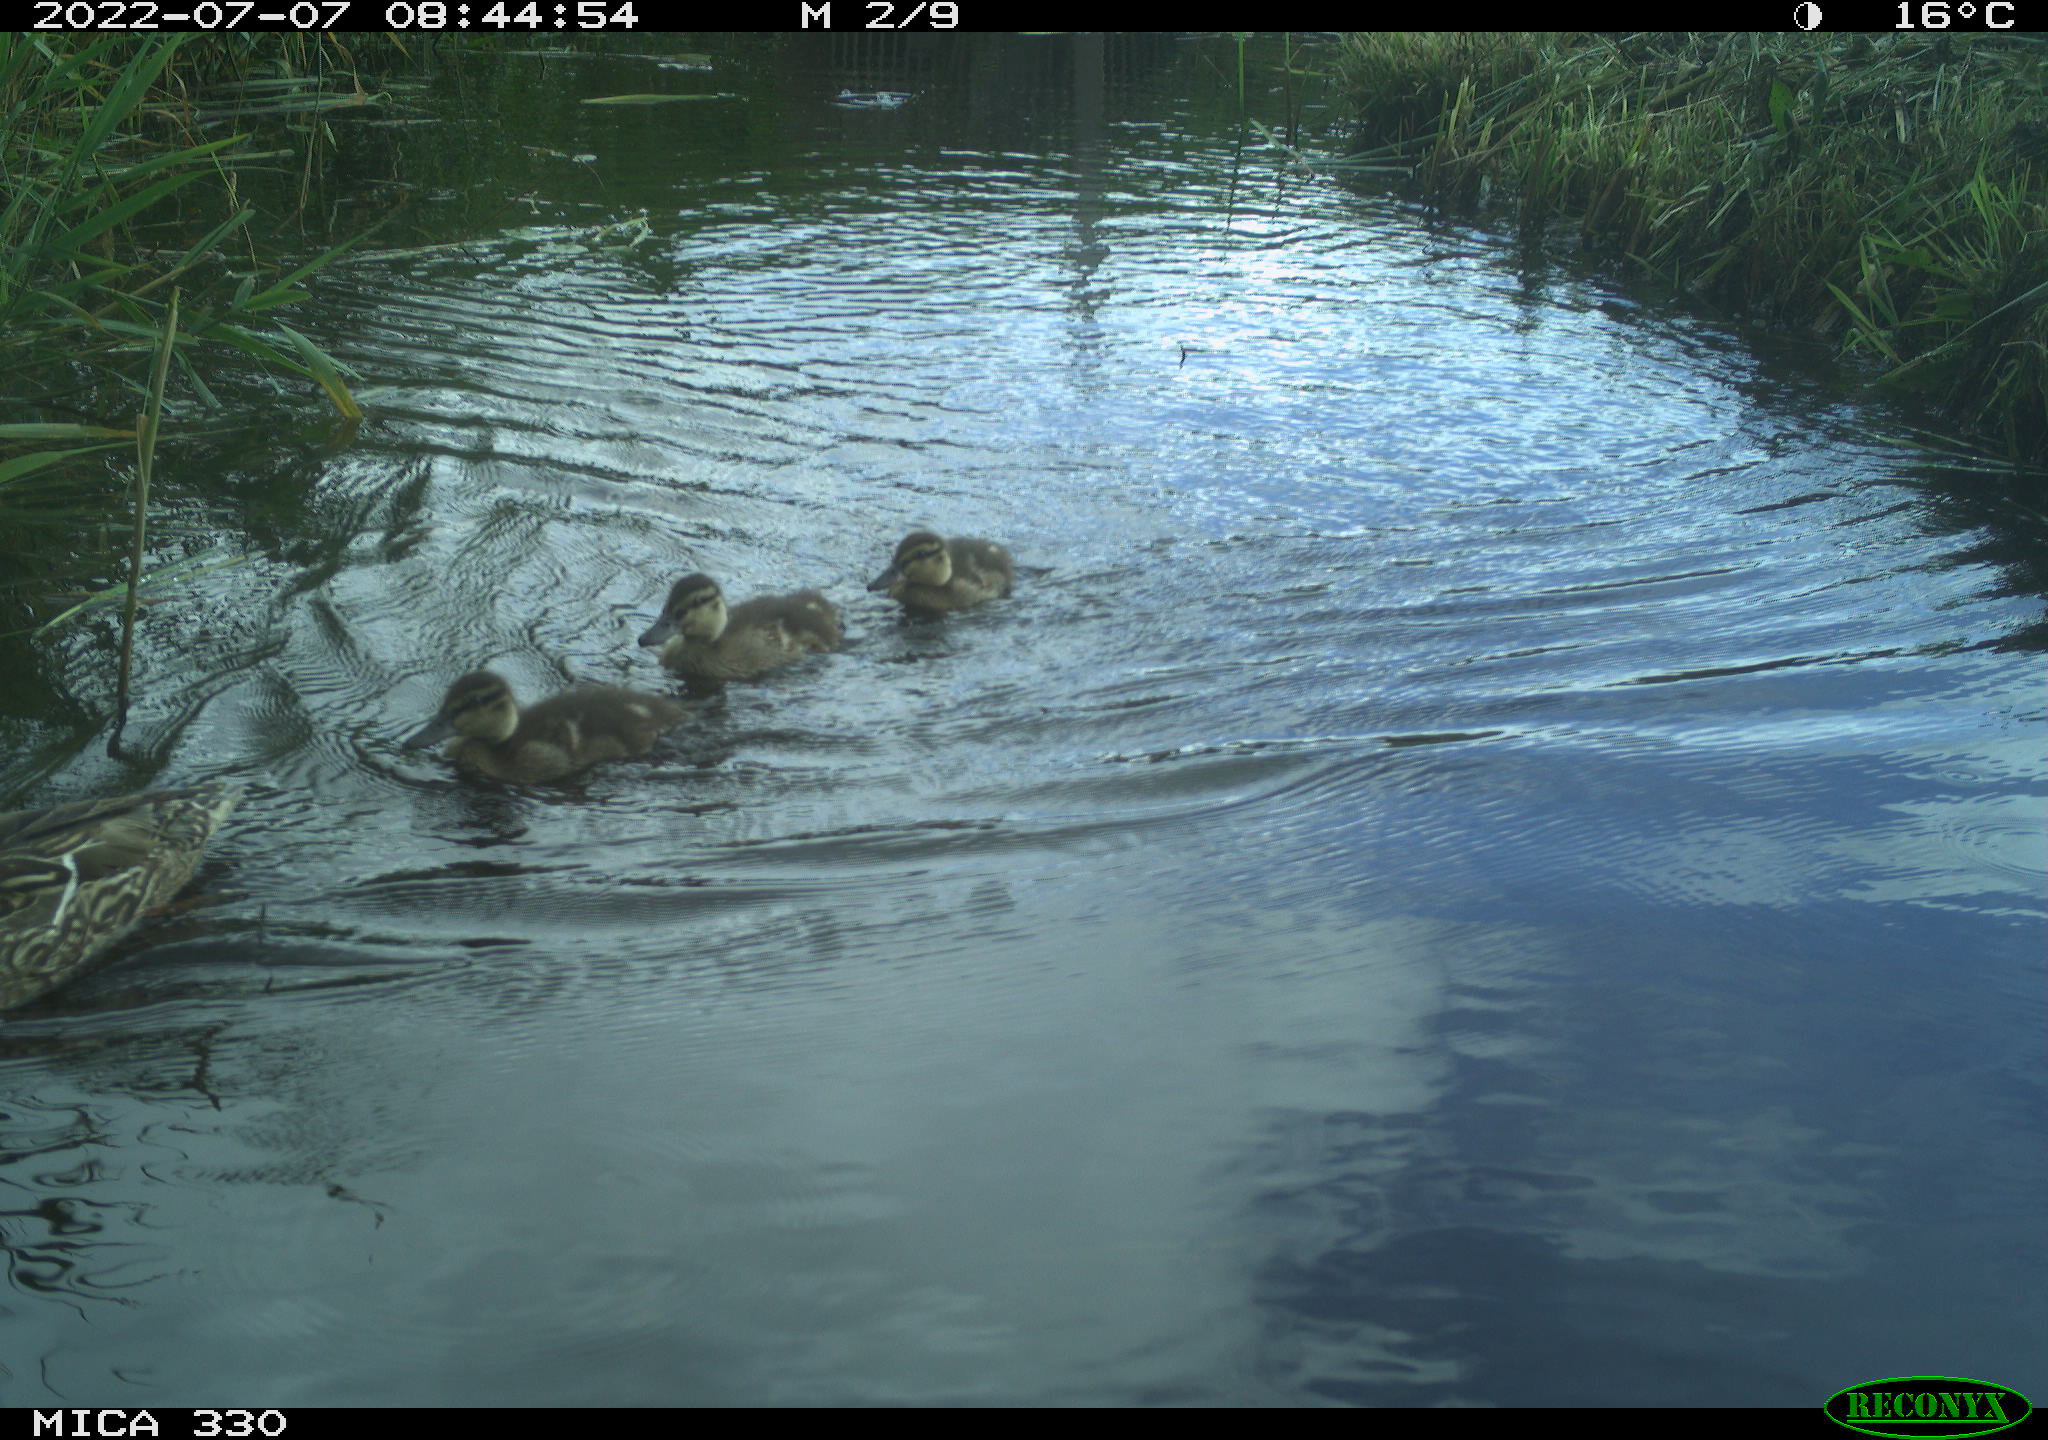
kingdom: Animalia
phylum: Chordata
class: Aves
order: Anseriformes
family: Anatidae
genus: Mareca
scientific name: Mareca strepera
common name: Gadwall
